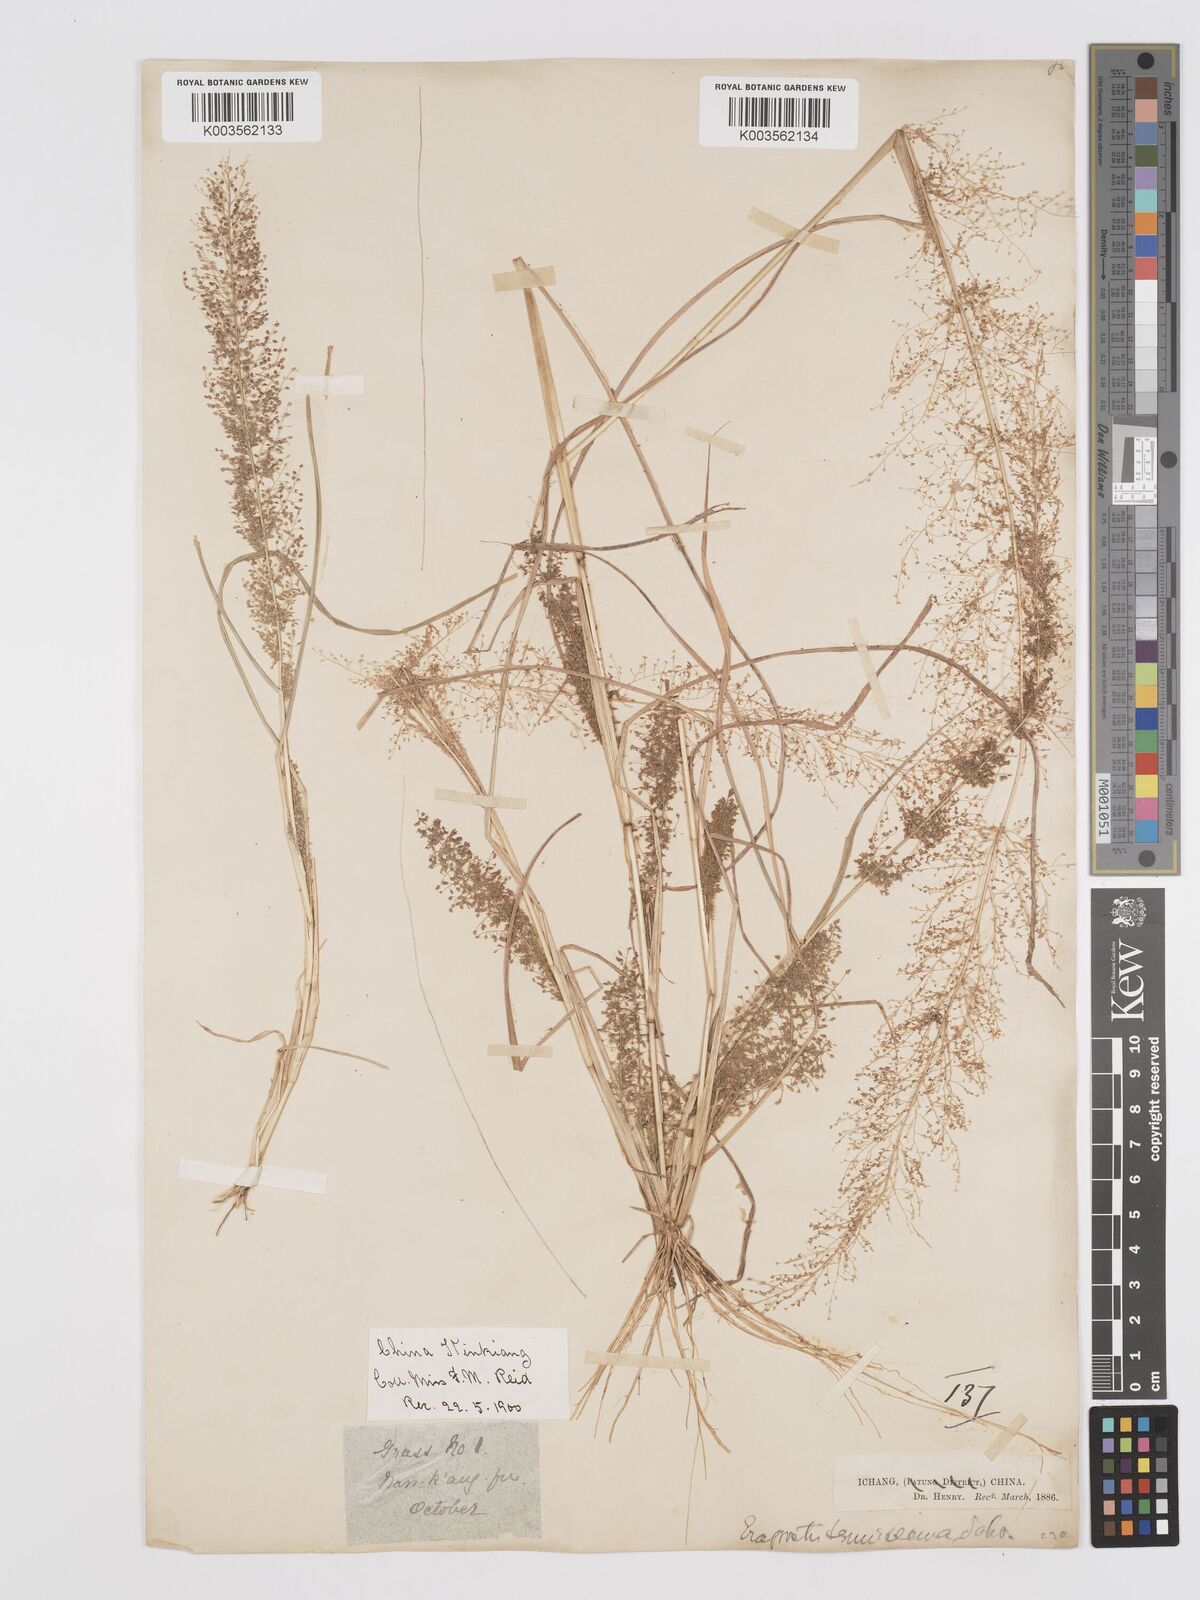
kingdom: Plantae
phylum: Tracheophyta
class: Liliopsida
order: Poales
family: Poaceae
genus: Eragrostis
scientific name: Eragrostis japonica
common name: Pond lovegrass
